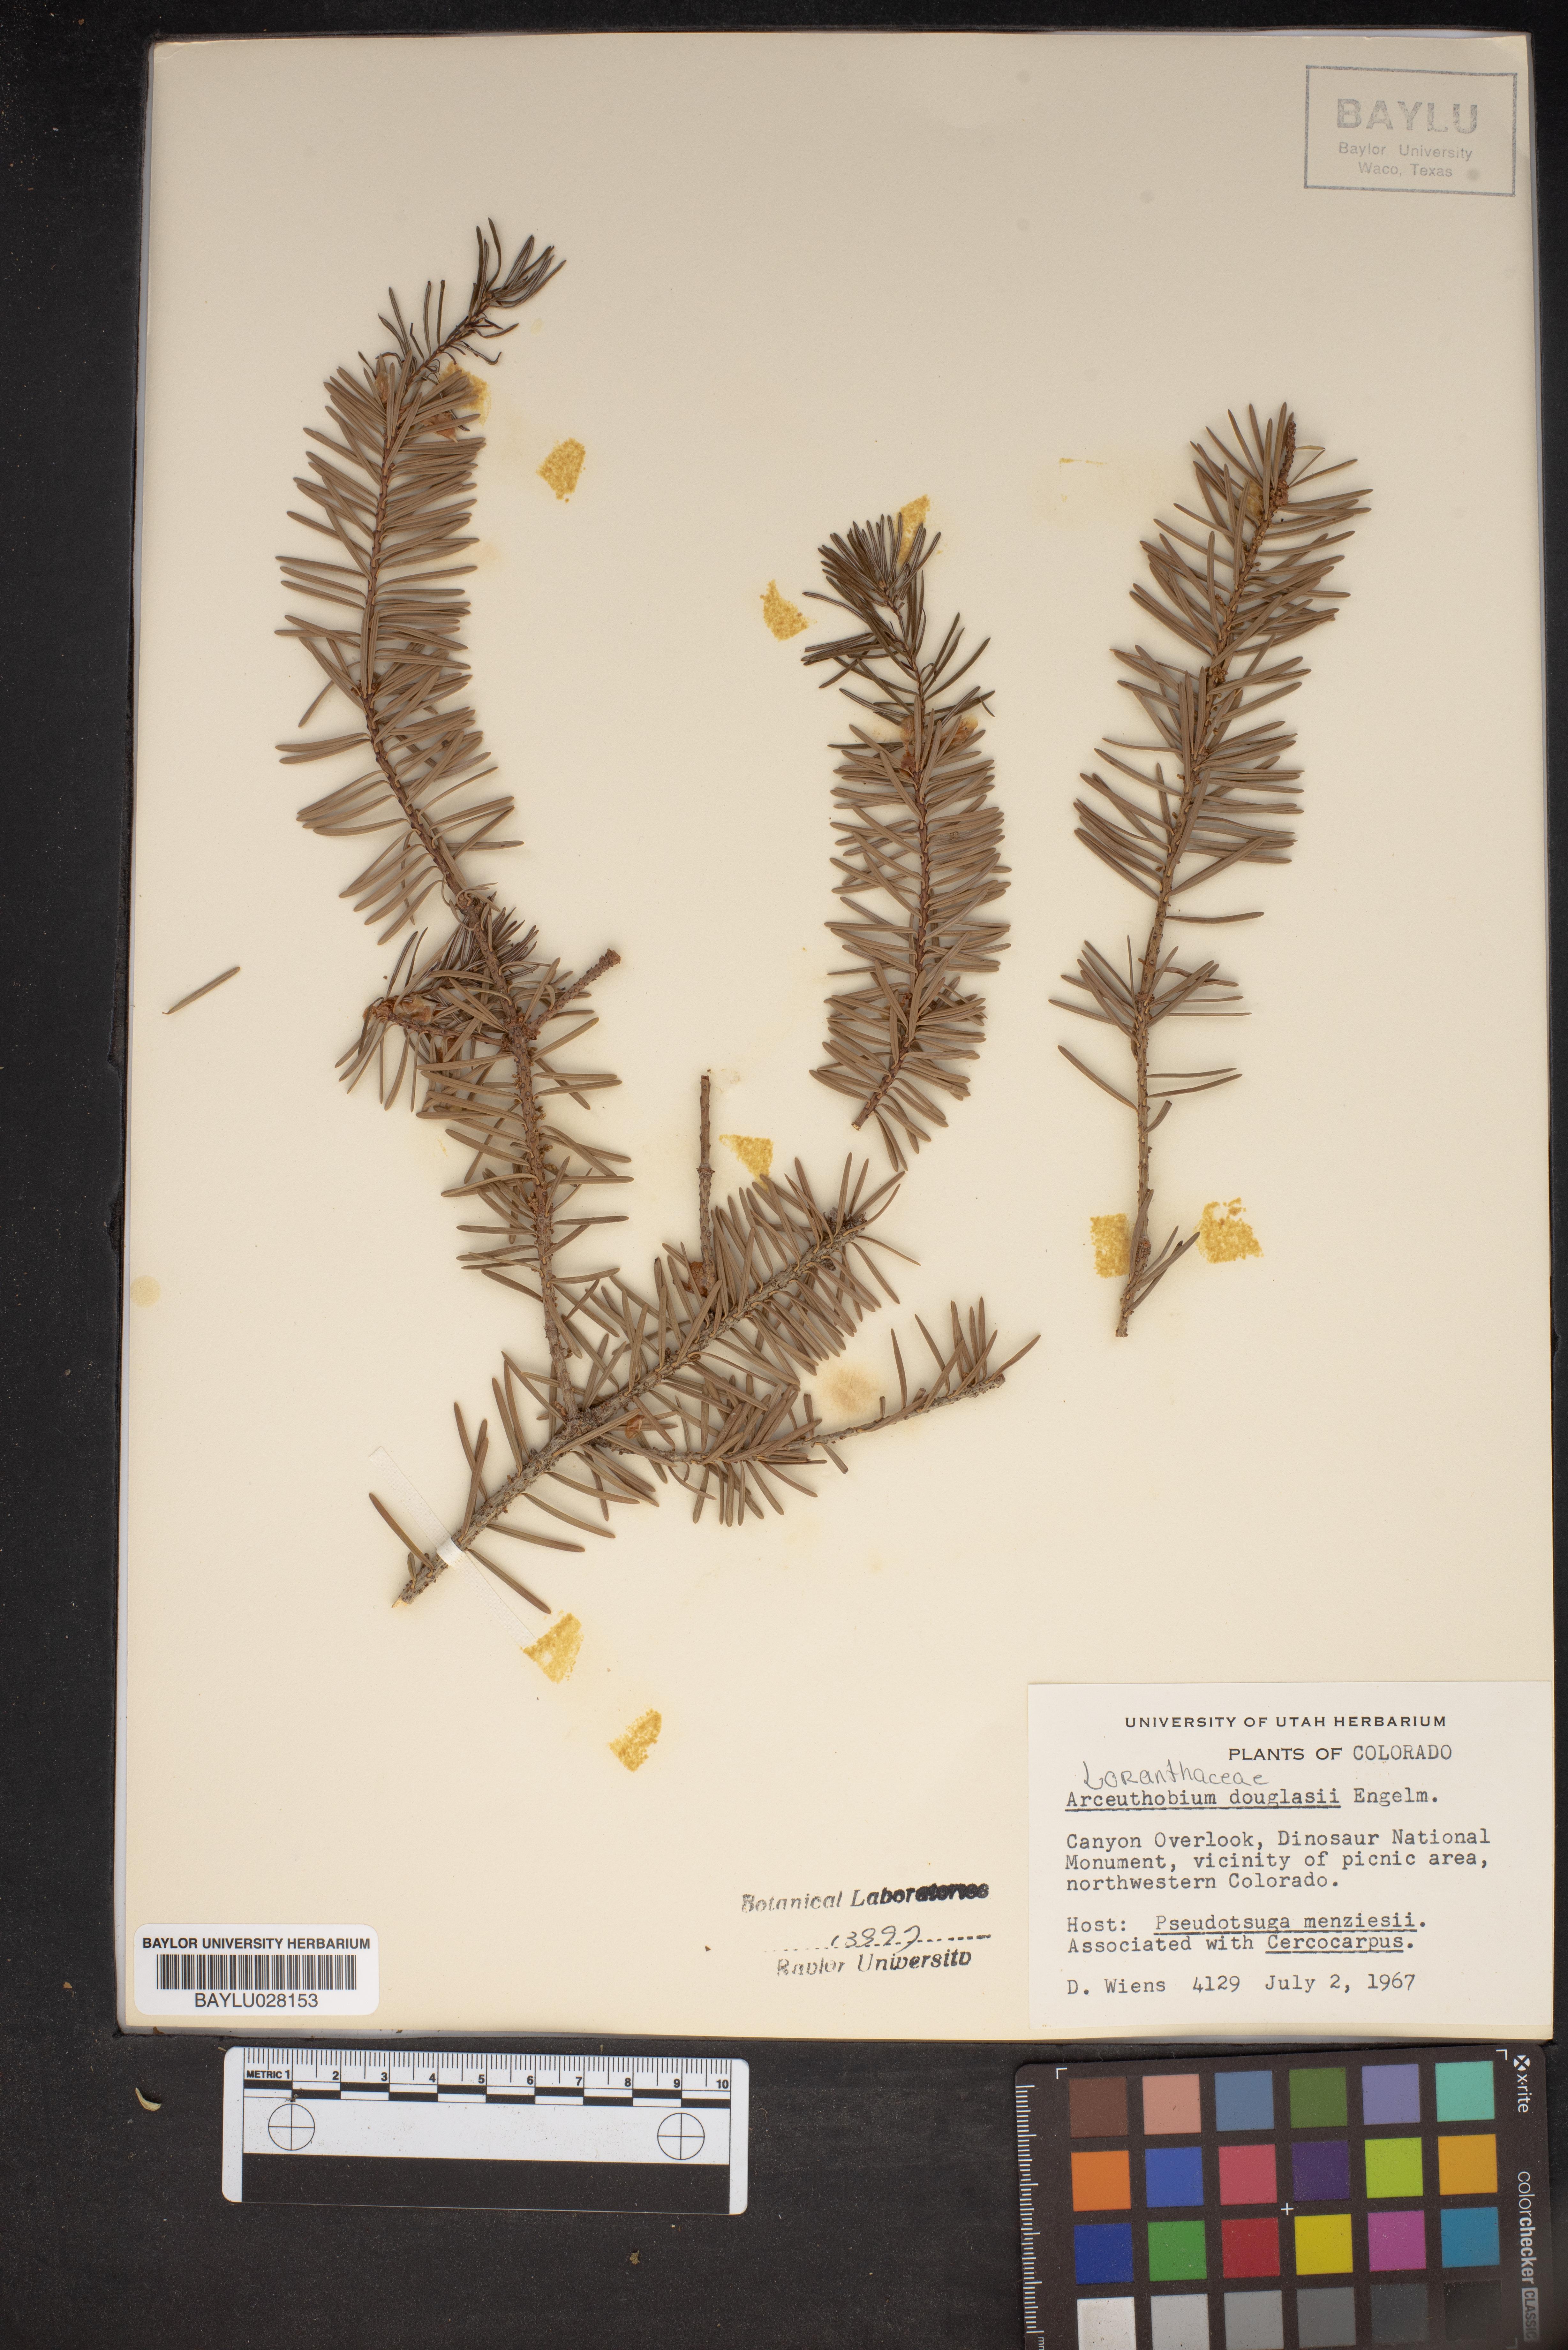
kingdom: Plantae
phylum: Tracheophyta
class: Magnoliopsida
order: Santalales
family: Viscaceae
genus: Arceuthobium
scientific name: Arceuthobium douglasii
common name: Douglas' dwarf mistletoe
